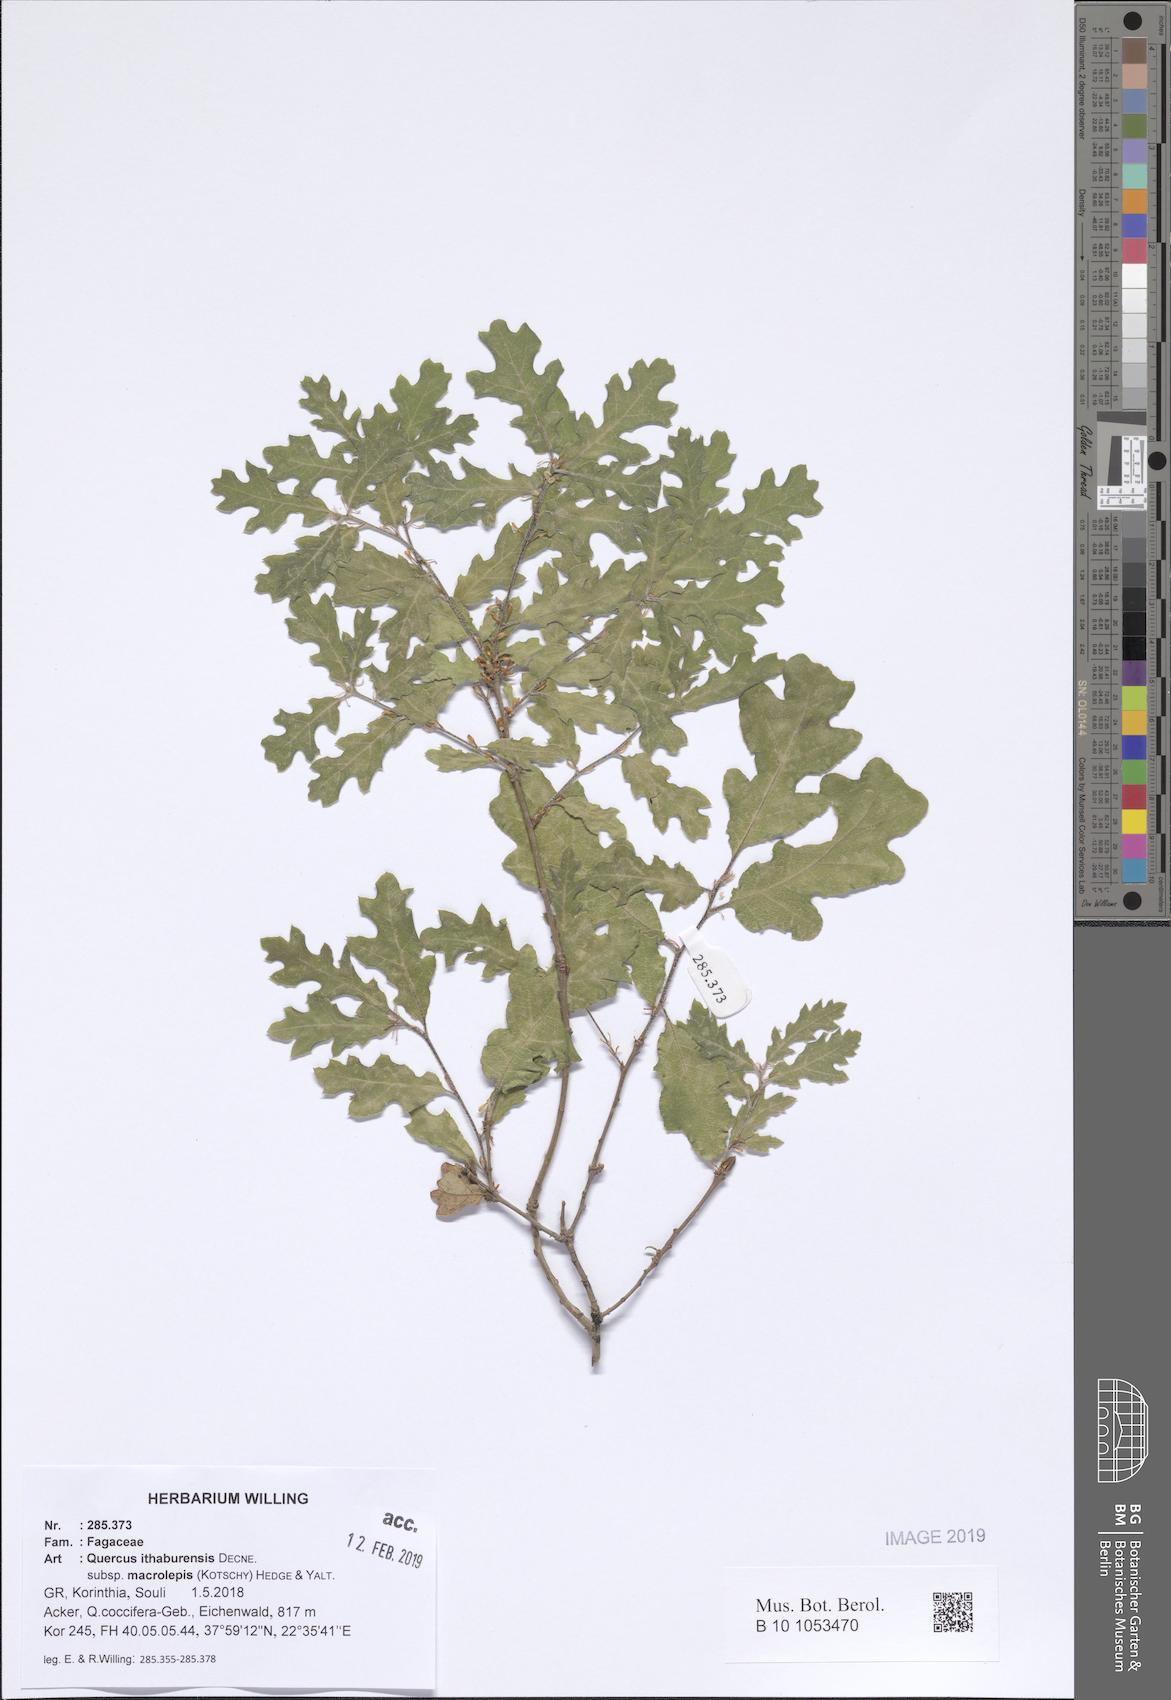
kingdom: Plantae
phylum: Tracheophyta
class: Magnoliopsida
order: Fagales
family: Fagaceae
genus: Quercus
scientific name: Quercus ithaburensis
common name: Tabor oak
